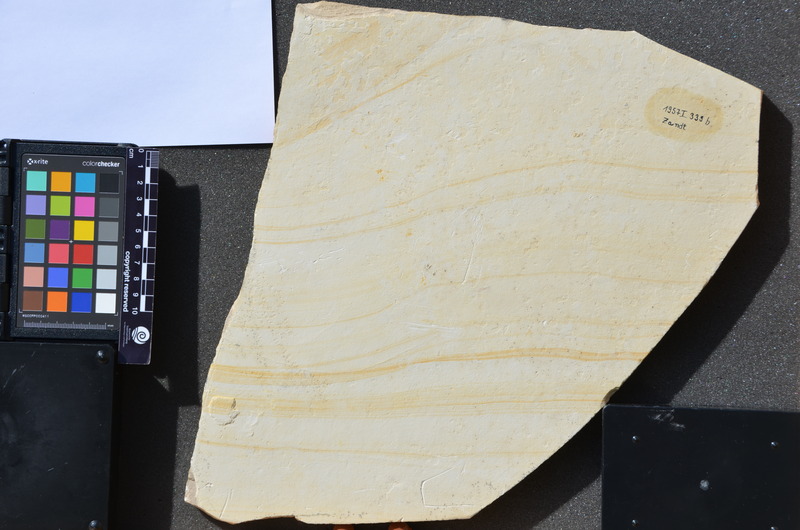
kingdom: Animalia
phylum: Chordata
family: Aspidorhynchidae
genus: Belonostomus
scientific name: Belonostomus muensteri
